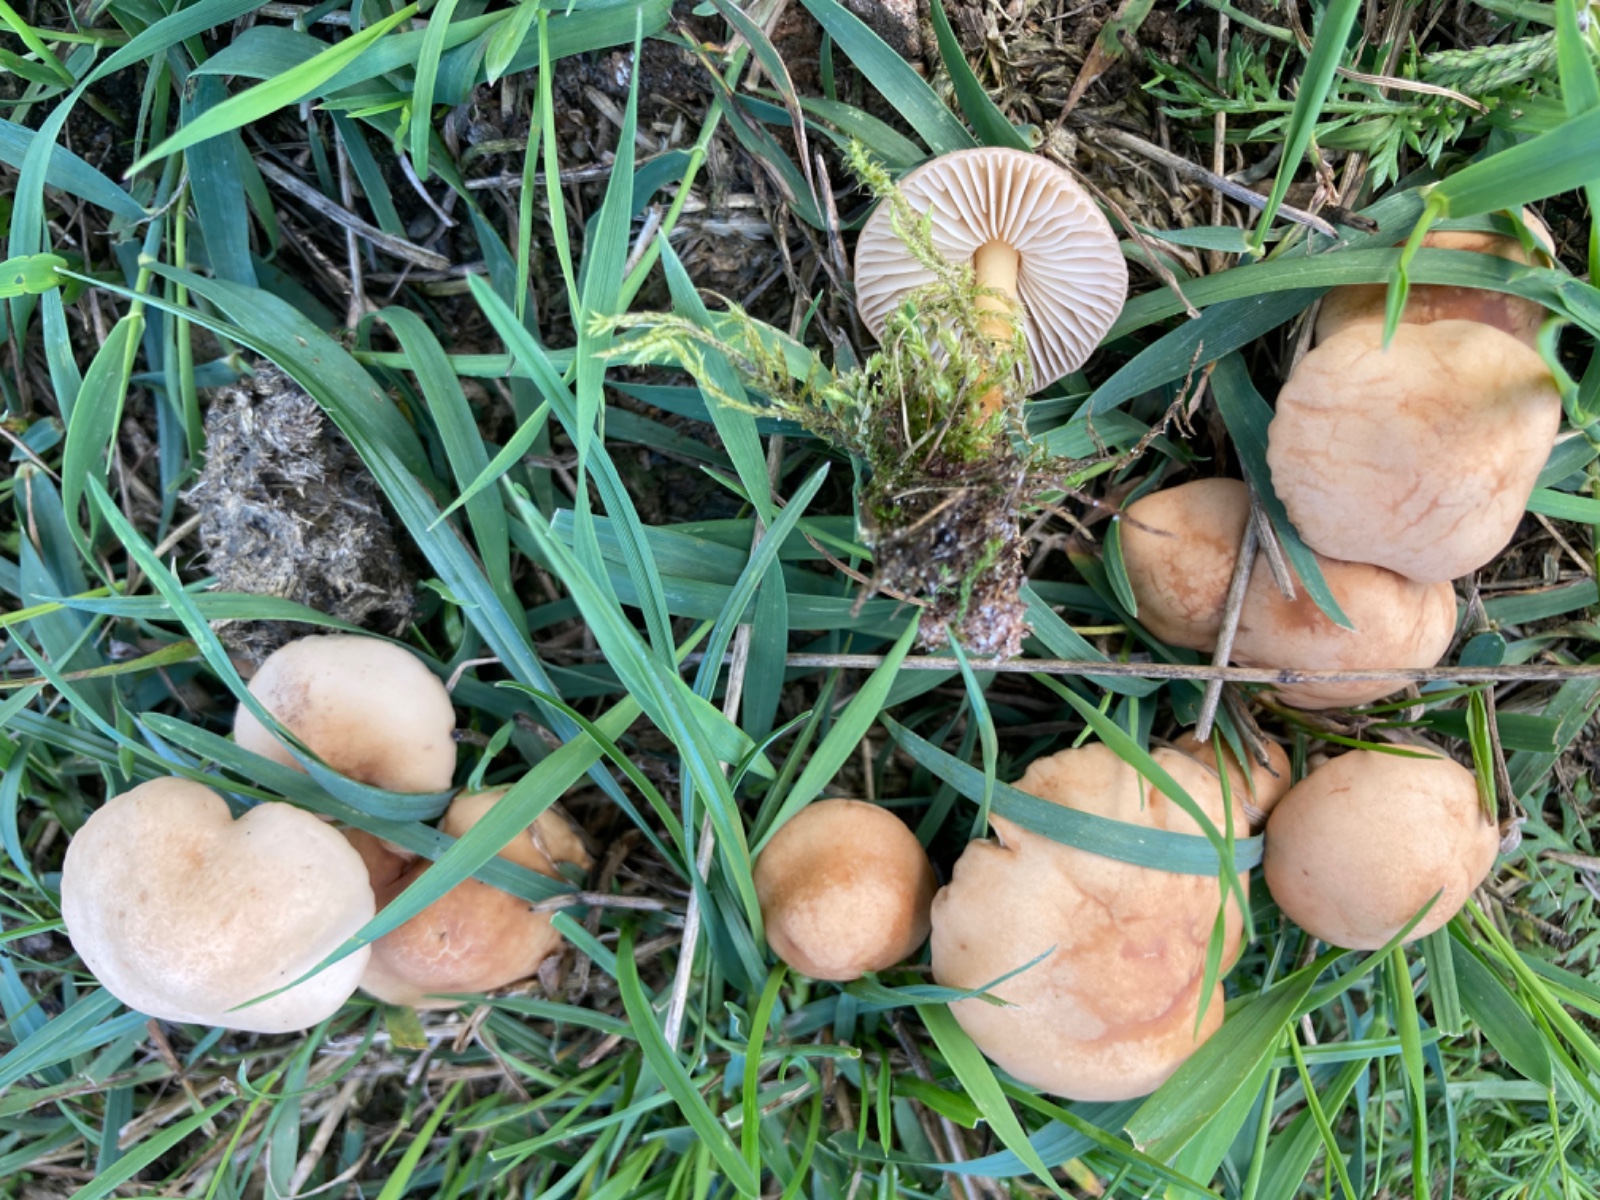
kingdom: Fungi
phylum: Basidiomycota
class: Agaricomycetes
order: Agaricales
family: Marasmiaceae
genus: Marasmius
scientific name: Marasmius oreades
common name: elledans-bruskhat
